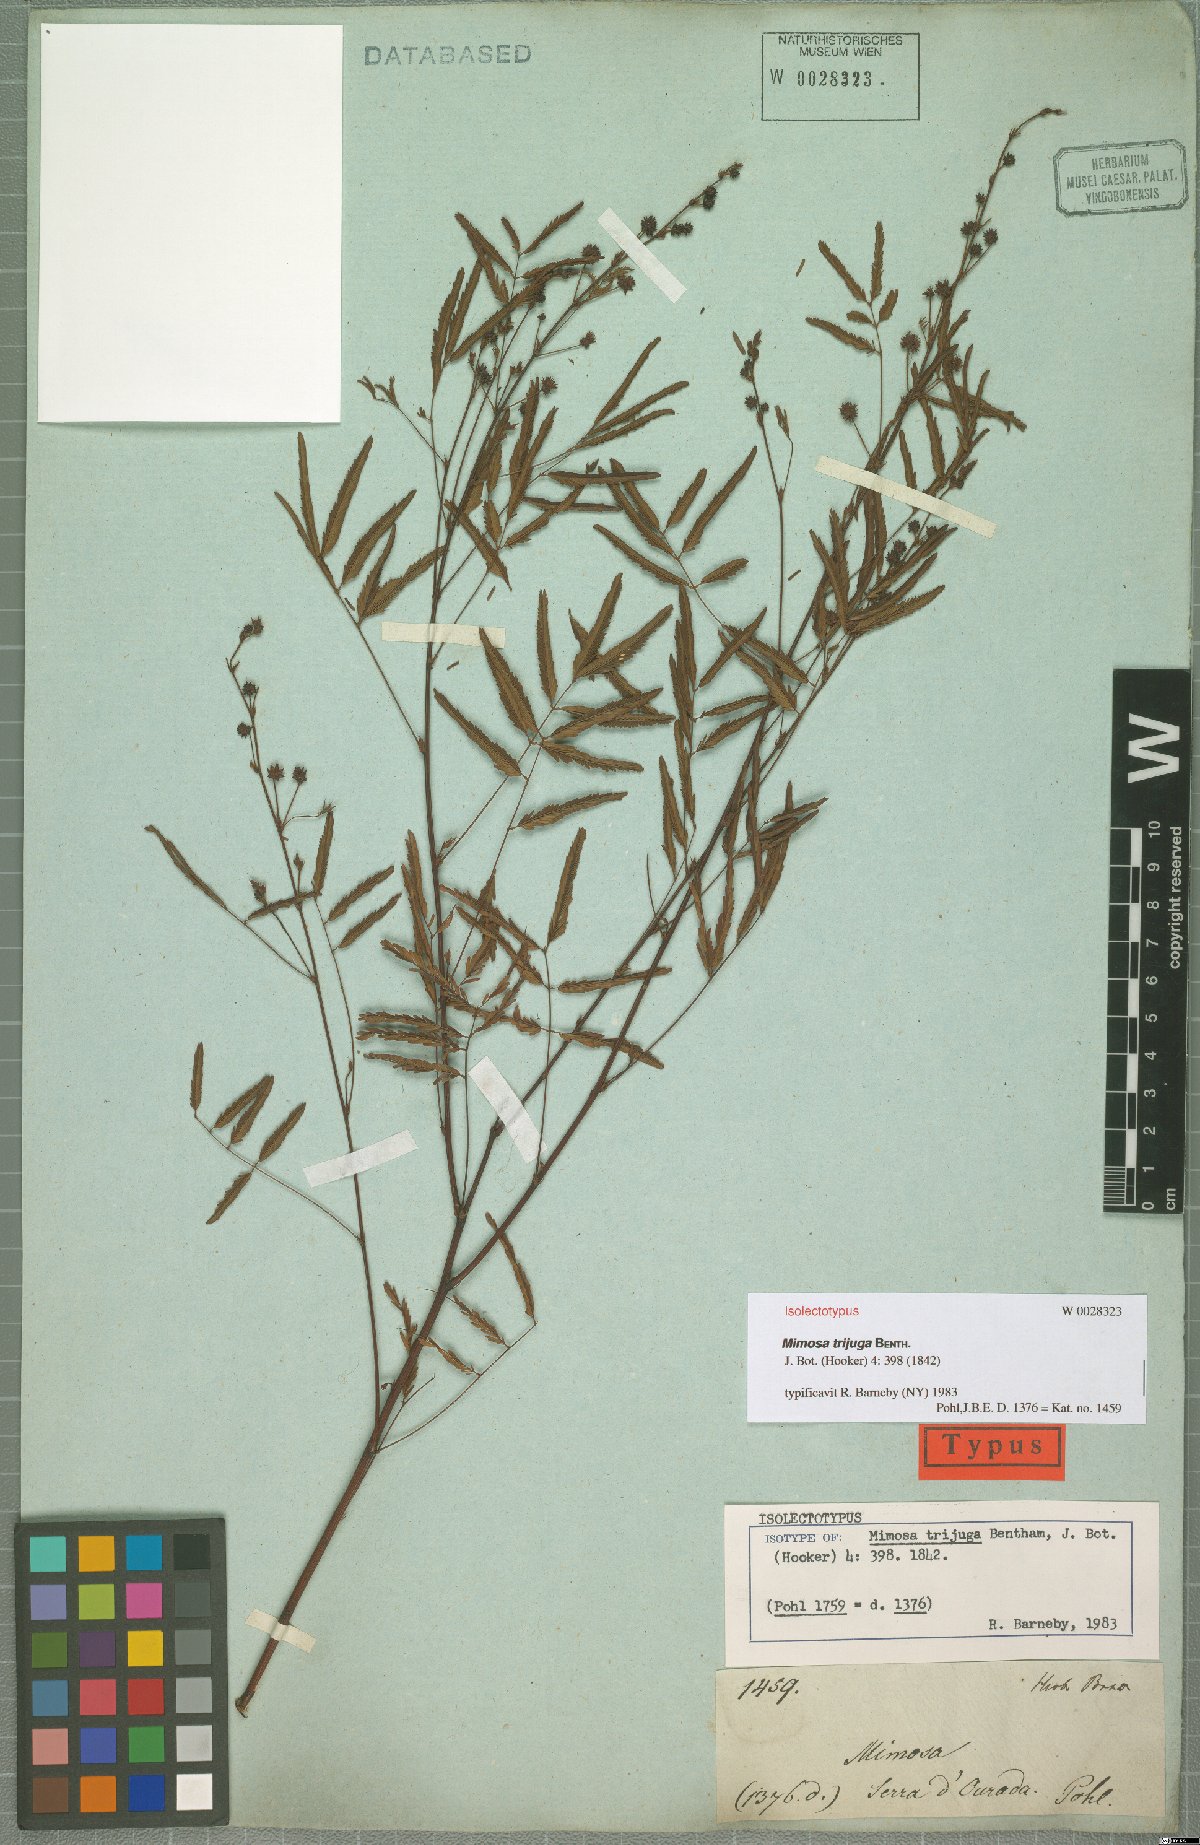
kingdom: Plantae
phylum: Tracheophyta
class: Magnoliopsida
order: Fabales
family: Fabaceae
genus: Mimosa
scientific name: Mimosa somnians
